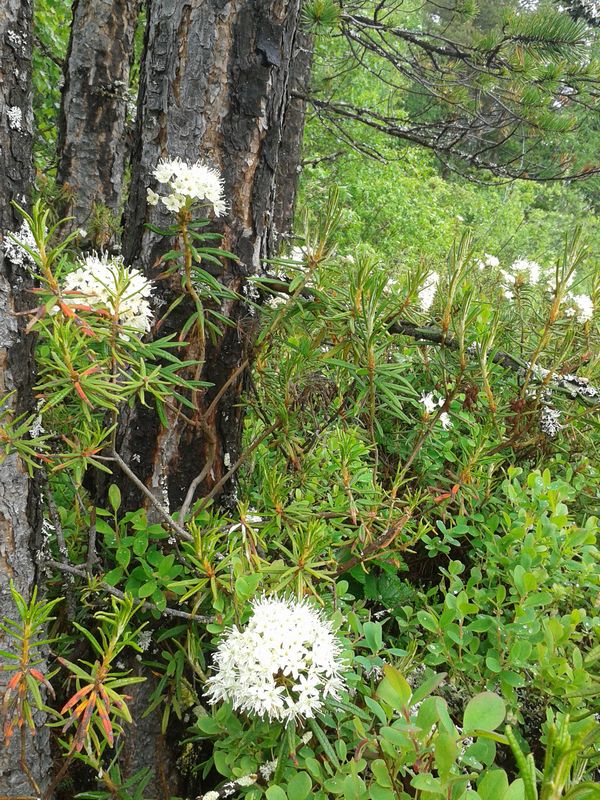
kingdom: Plantae
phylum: Tracheophyta
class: Magnoliopsida
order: Ericales
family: Ericaceae
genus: Rhododendron
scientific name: Rhododendron tomentosum
